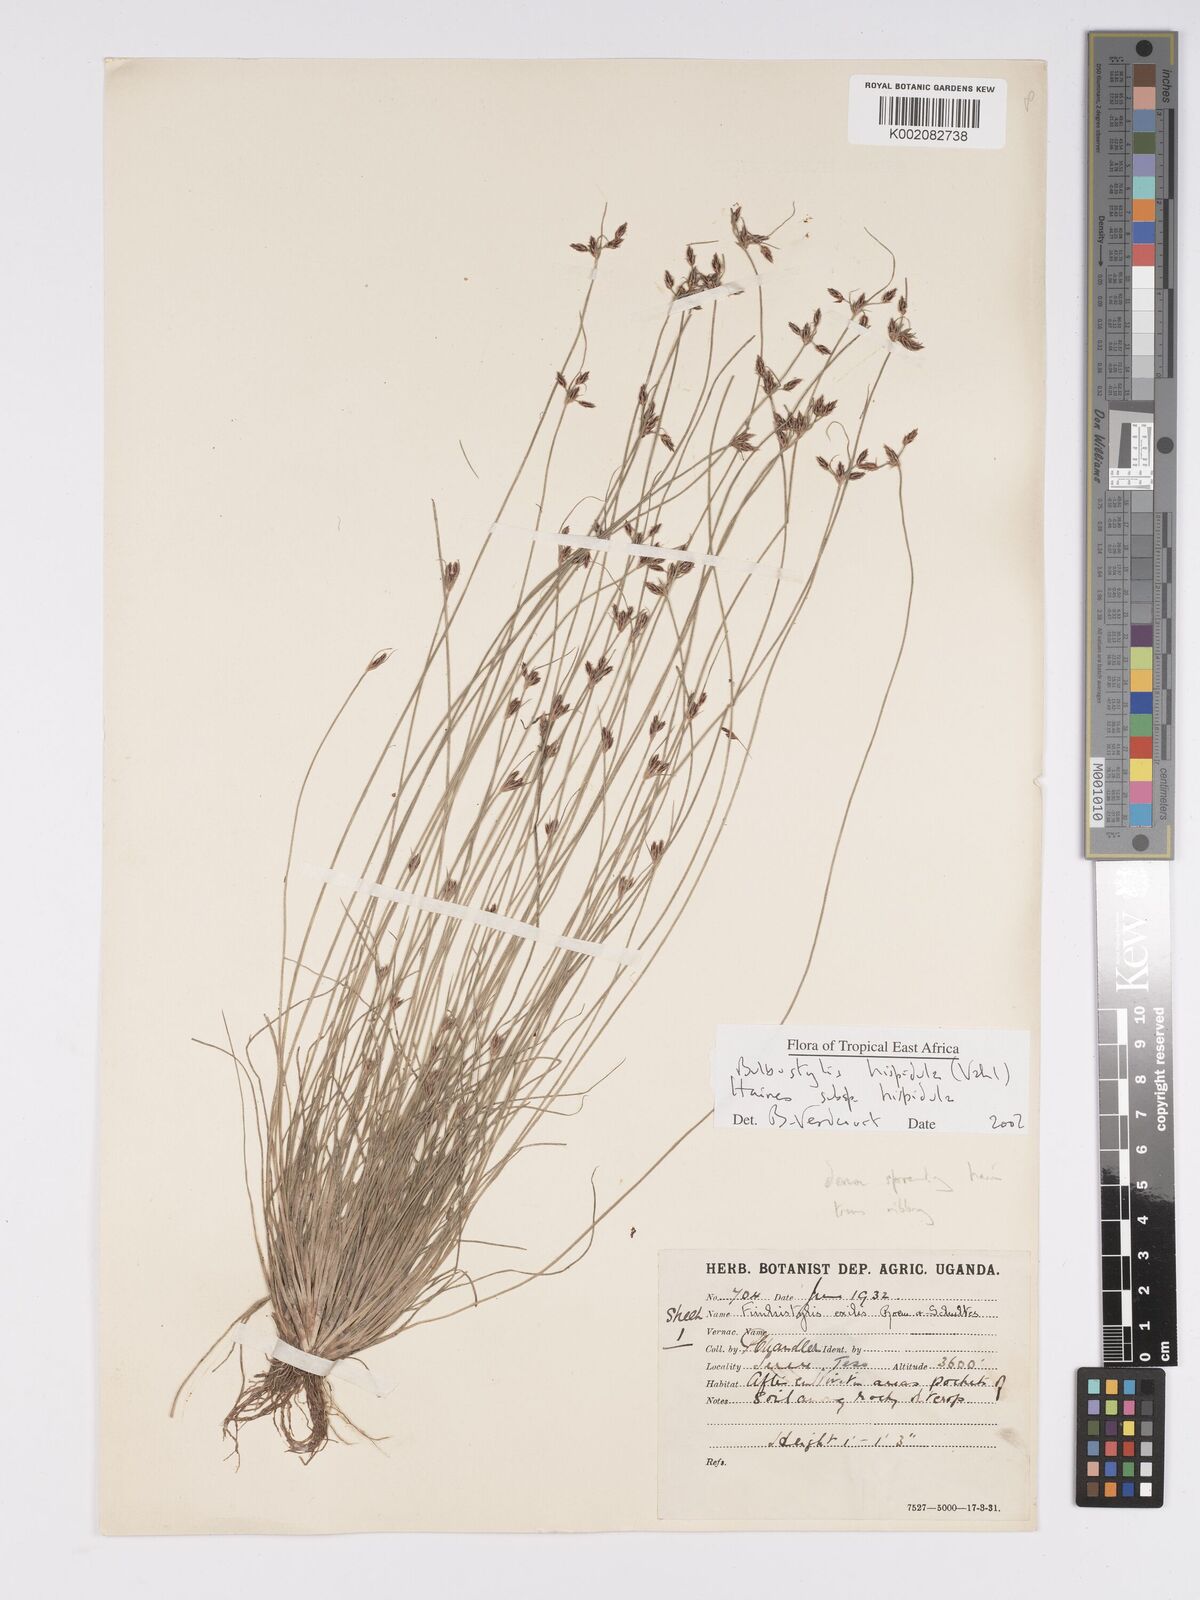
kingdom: Plantae
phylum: Tracheophyta
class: Magnoliopsida
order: Asterales
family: Asteraceae
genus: Bulbostylis
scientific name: Bulbostylis
